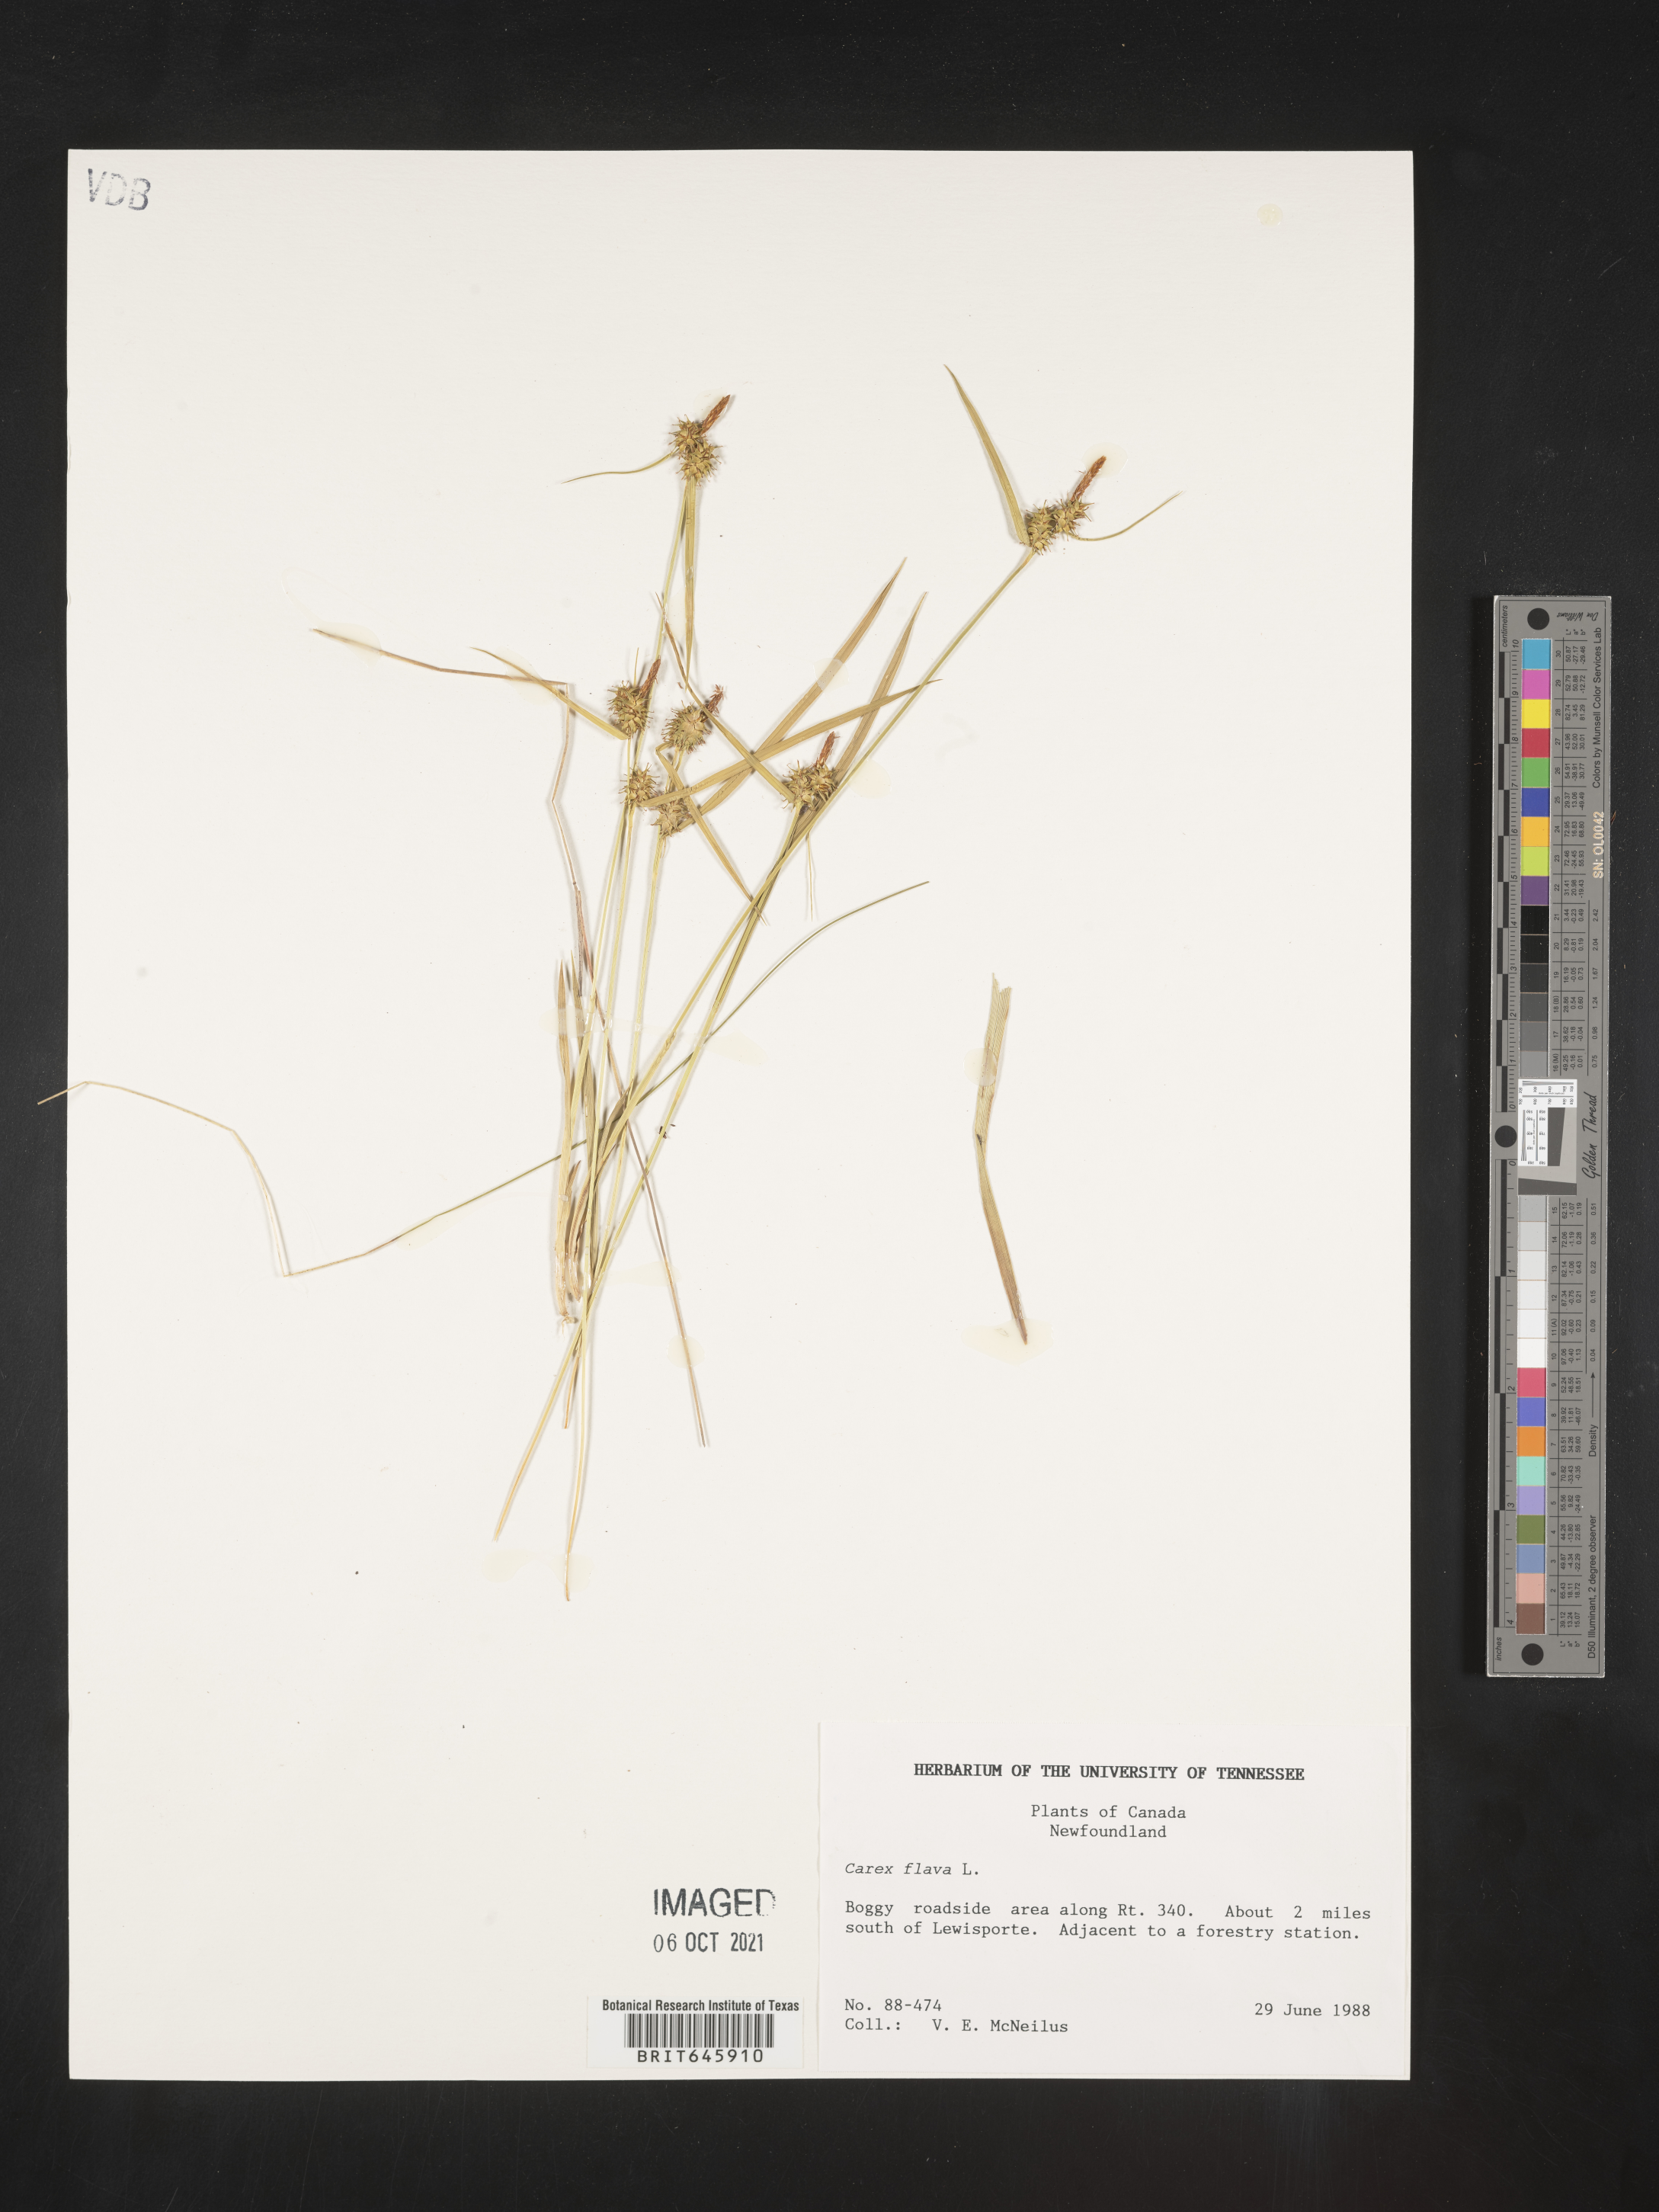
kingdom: Plantae
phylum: Tracheophyta
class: Liliopsida
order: Poales
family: Cyperaceae
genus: Carex
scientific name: Carex flava
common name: Large yellow-sedge
